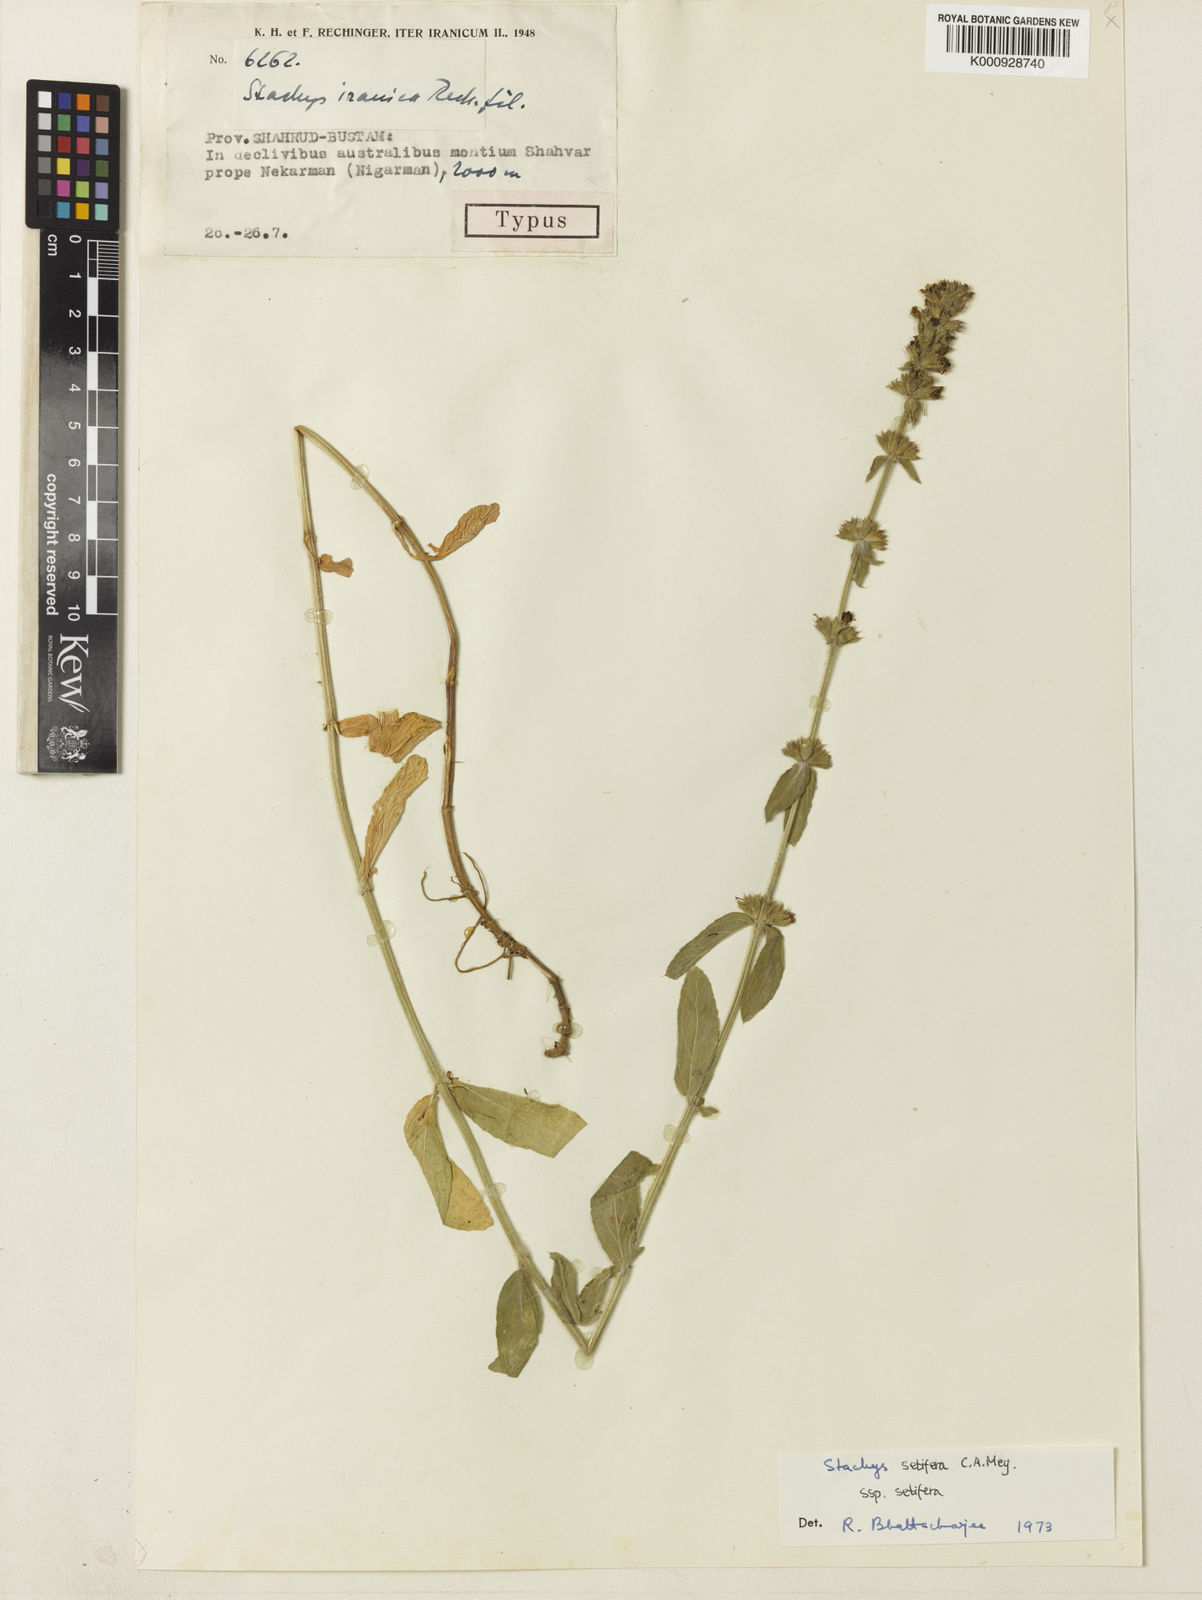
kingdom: Plantae
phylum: Tracheophyta
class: Magnoliopsida
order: Lamiales
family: Lamiaceae
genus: Stachys
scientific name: Stachys setifera
